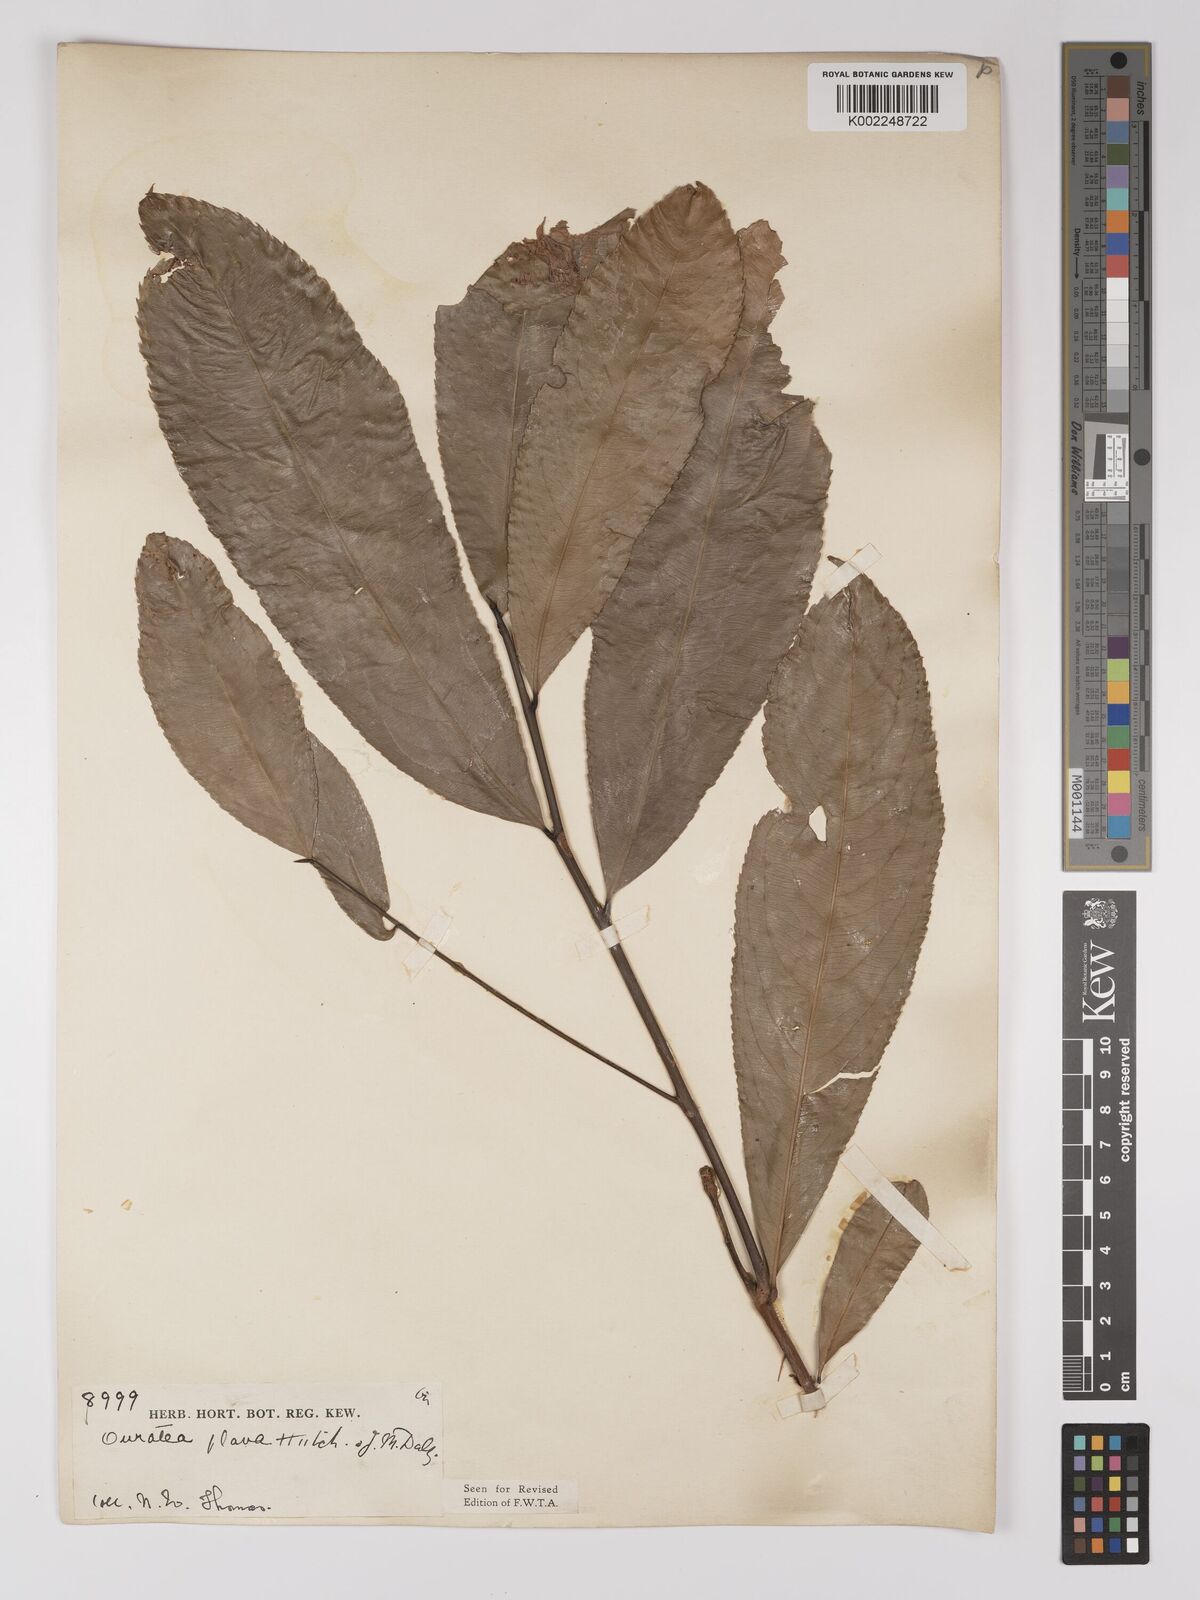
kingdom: Plantae
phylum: Tracheophyta
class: Magnoliopsida
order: Malpighiales
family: Ochnaceae
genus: Campylospermum
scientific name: Campylospermum flavum
